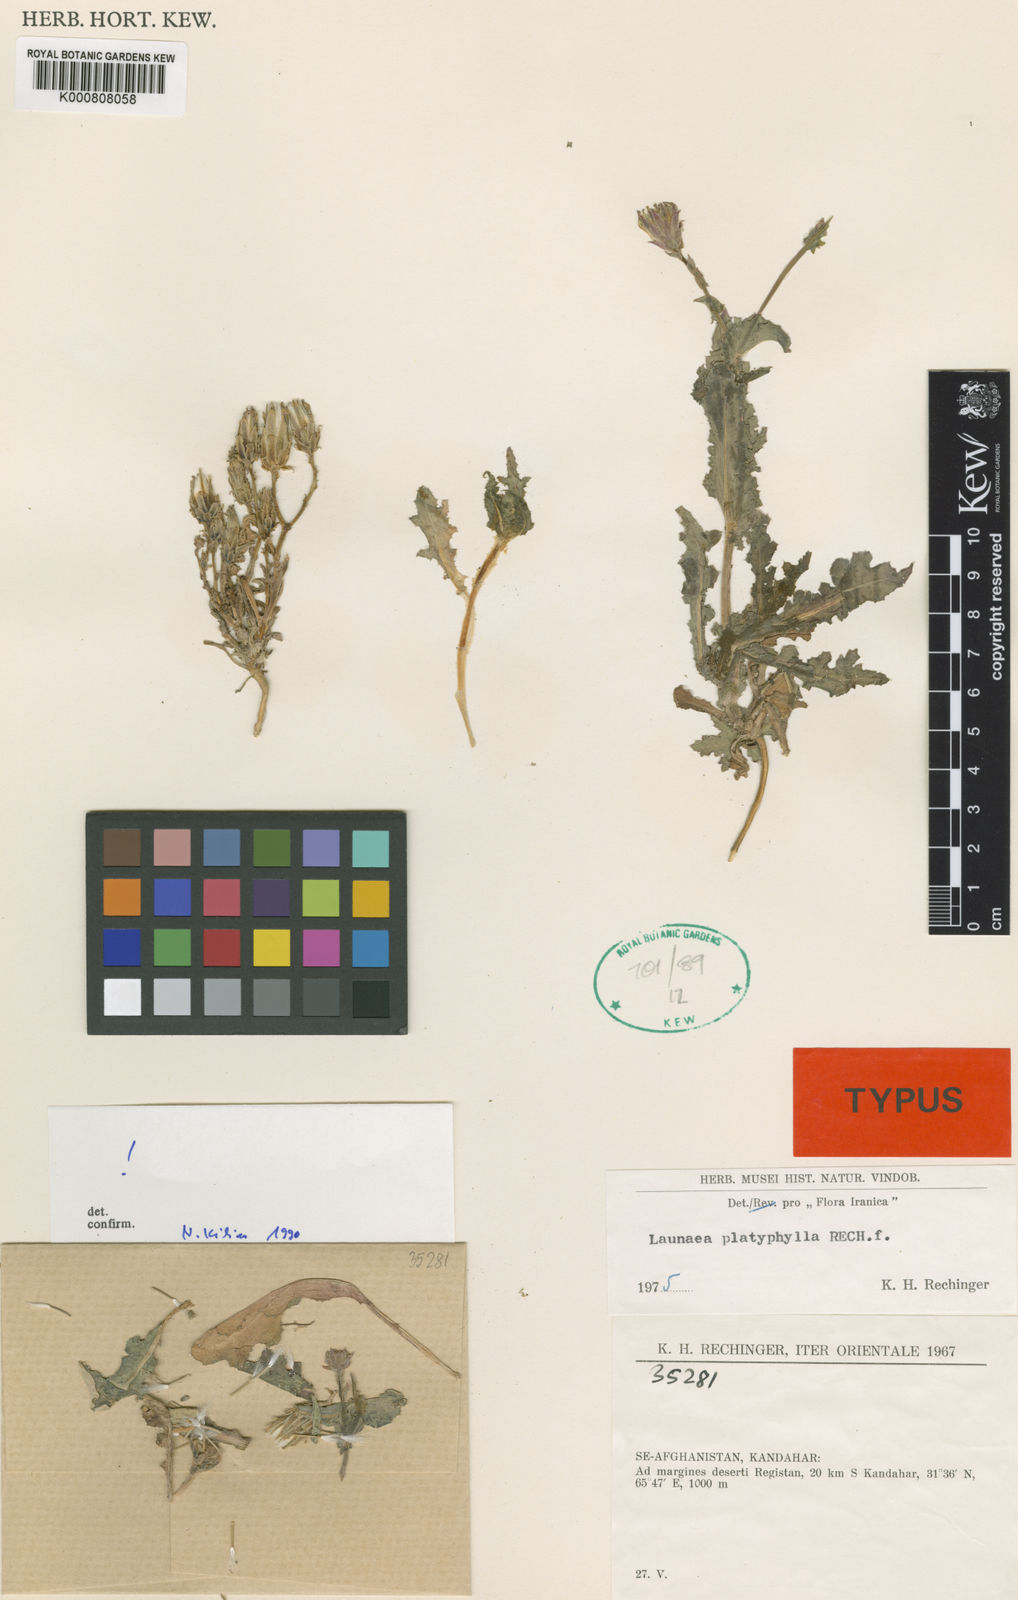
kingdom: Plantae
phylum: Tracheophyta
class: Magnoliopsida
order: Asterales
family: Asteraceae
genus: Launaea
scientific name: Launaea platyphylla
